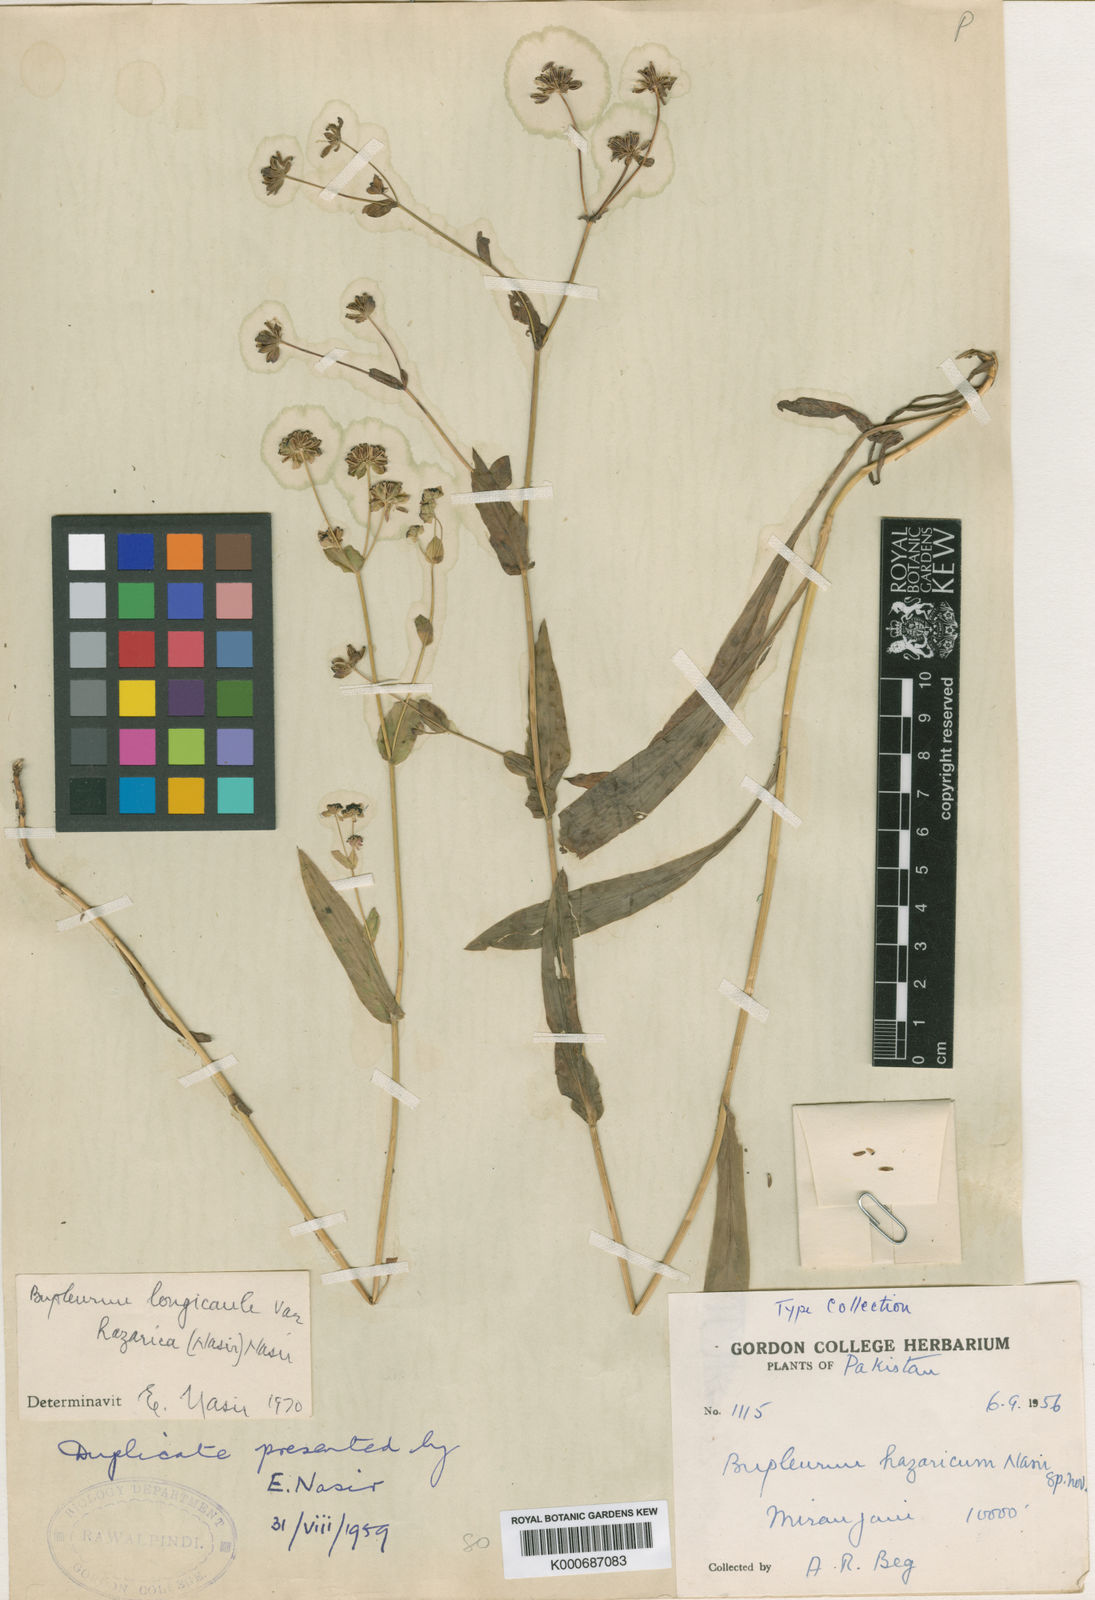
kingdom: Plantae
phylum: Tracheophyta
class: Magnoliopsida
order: Apiales
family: Apiaceae
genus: Bupleurum
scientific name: Bupleurum longicaule
